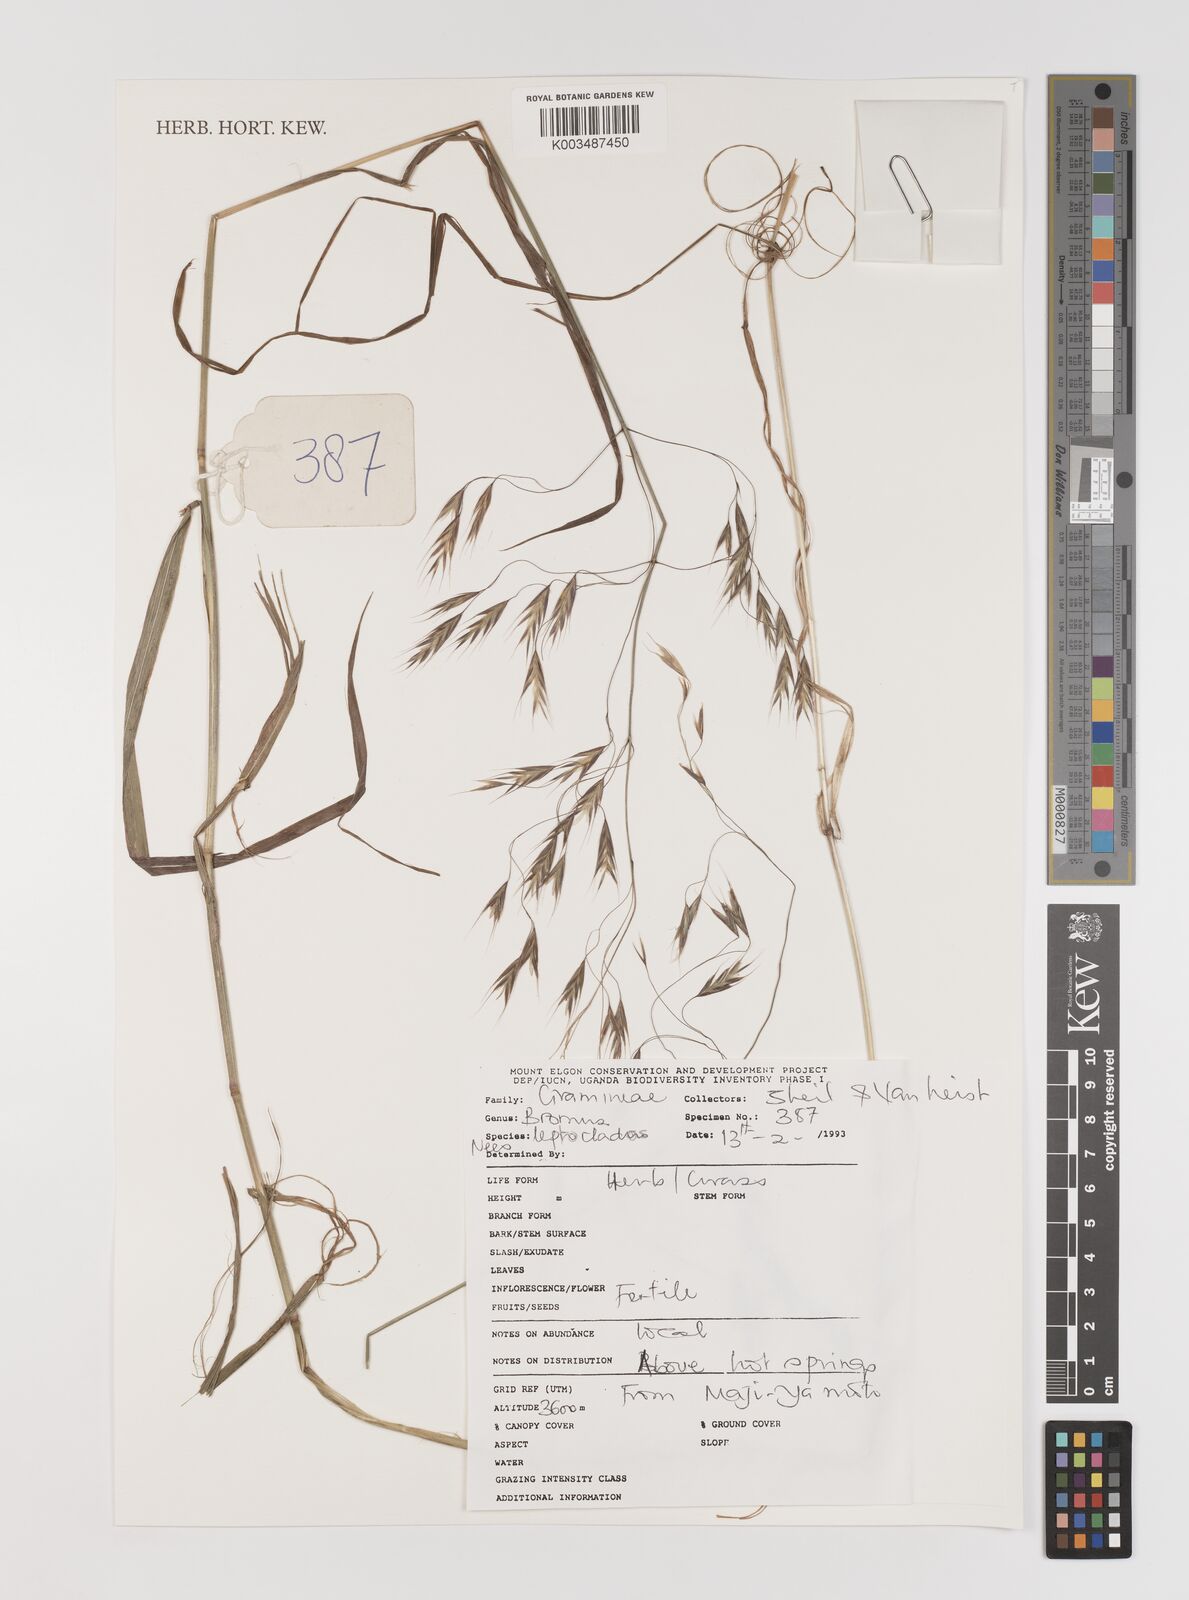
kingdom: Plantae
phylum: Tracheophyta
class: Liliopsida
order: Poales
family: Poaceae
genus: Bromus
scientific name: Bromus leptoclados
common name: Mountain bromegrass
